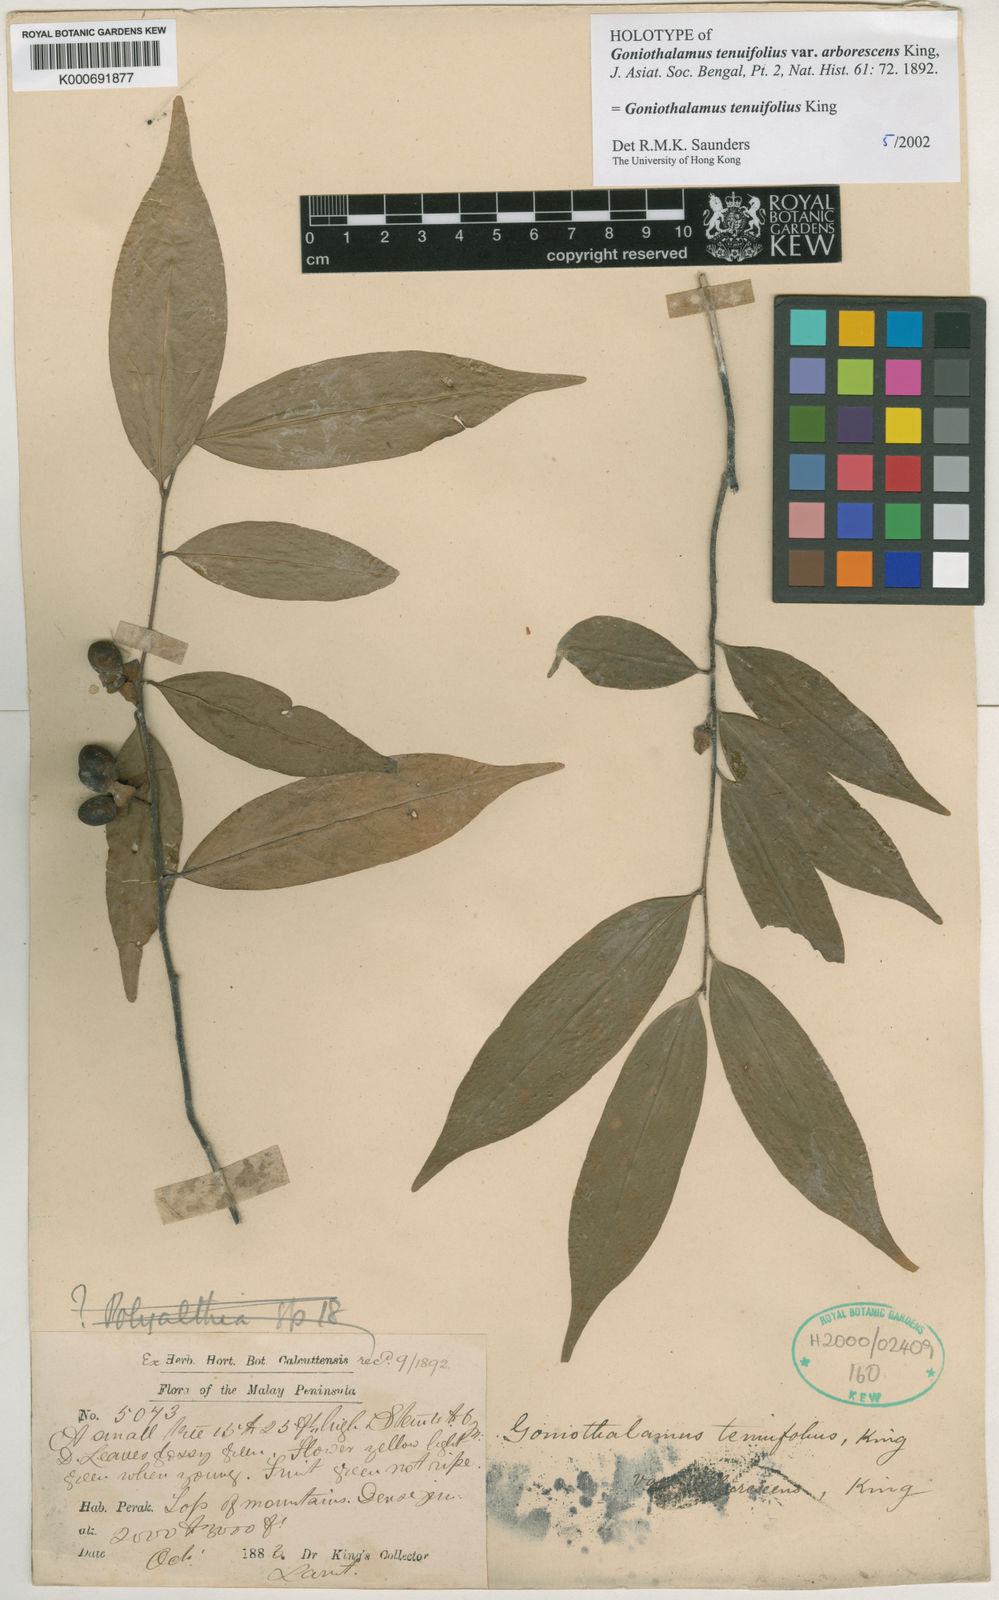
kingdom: Plantae
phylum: Tracheophyta
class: Magnoliopsida
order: Magnoliales
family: Annonaceae
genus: Goniothalamus
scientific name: Goniothalamus tenuifolius
